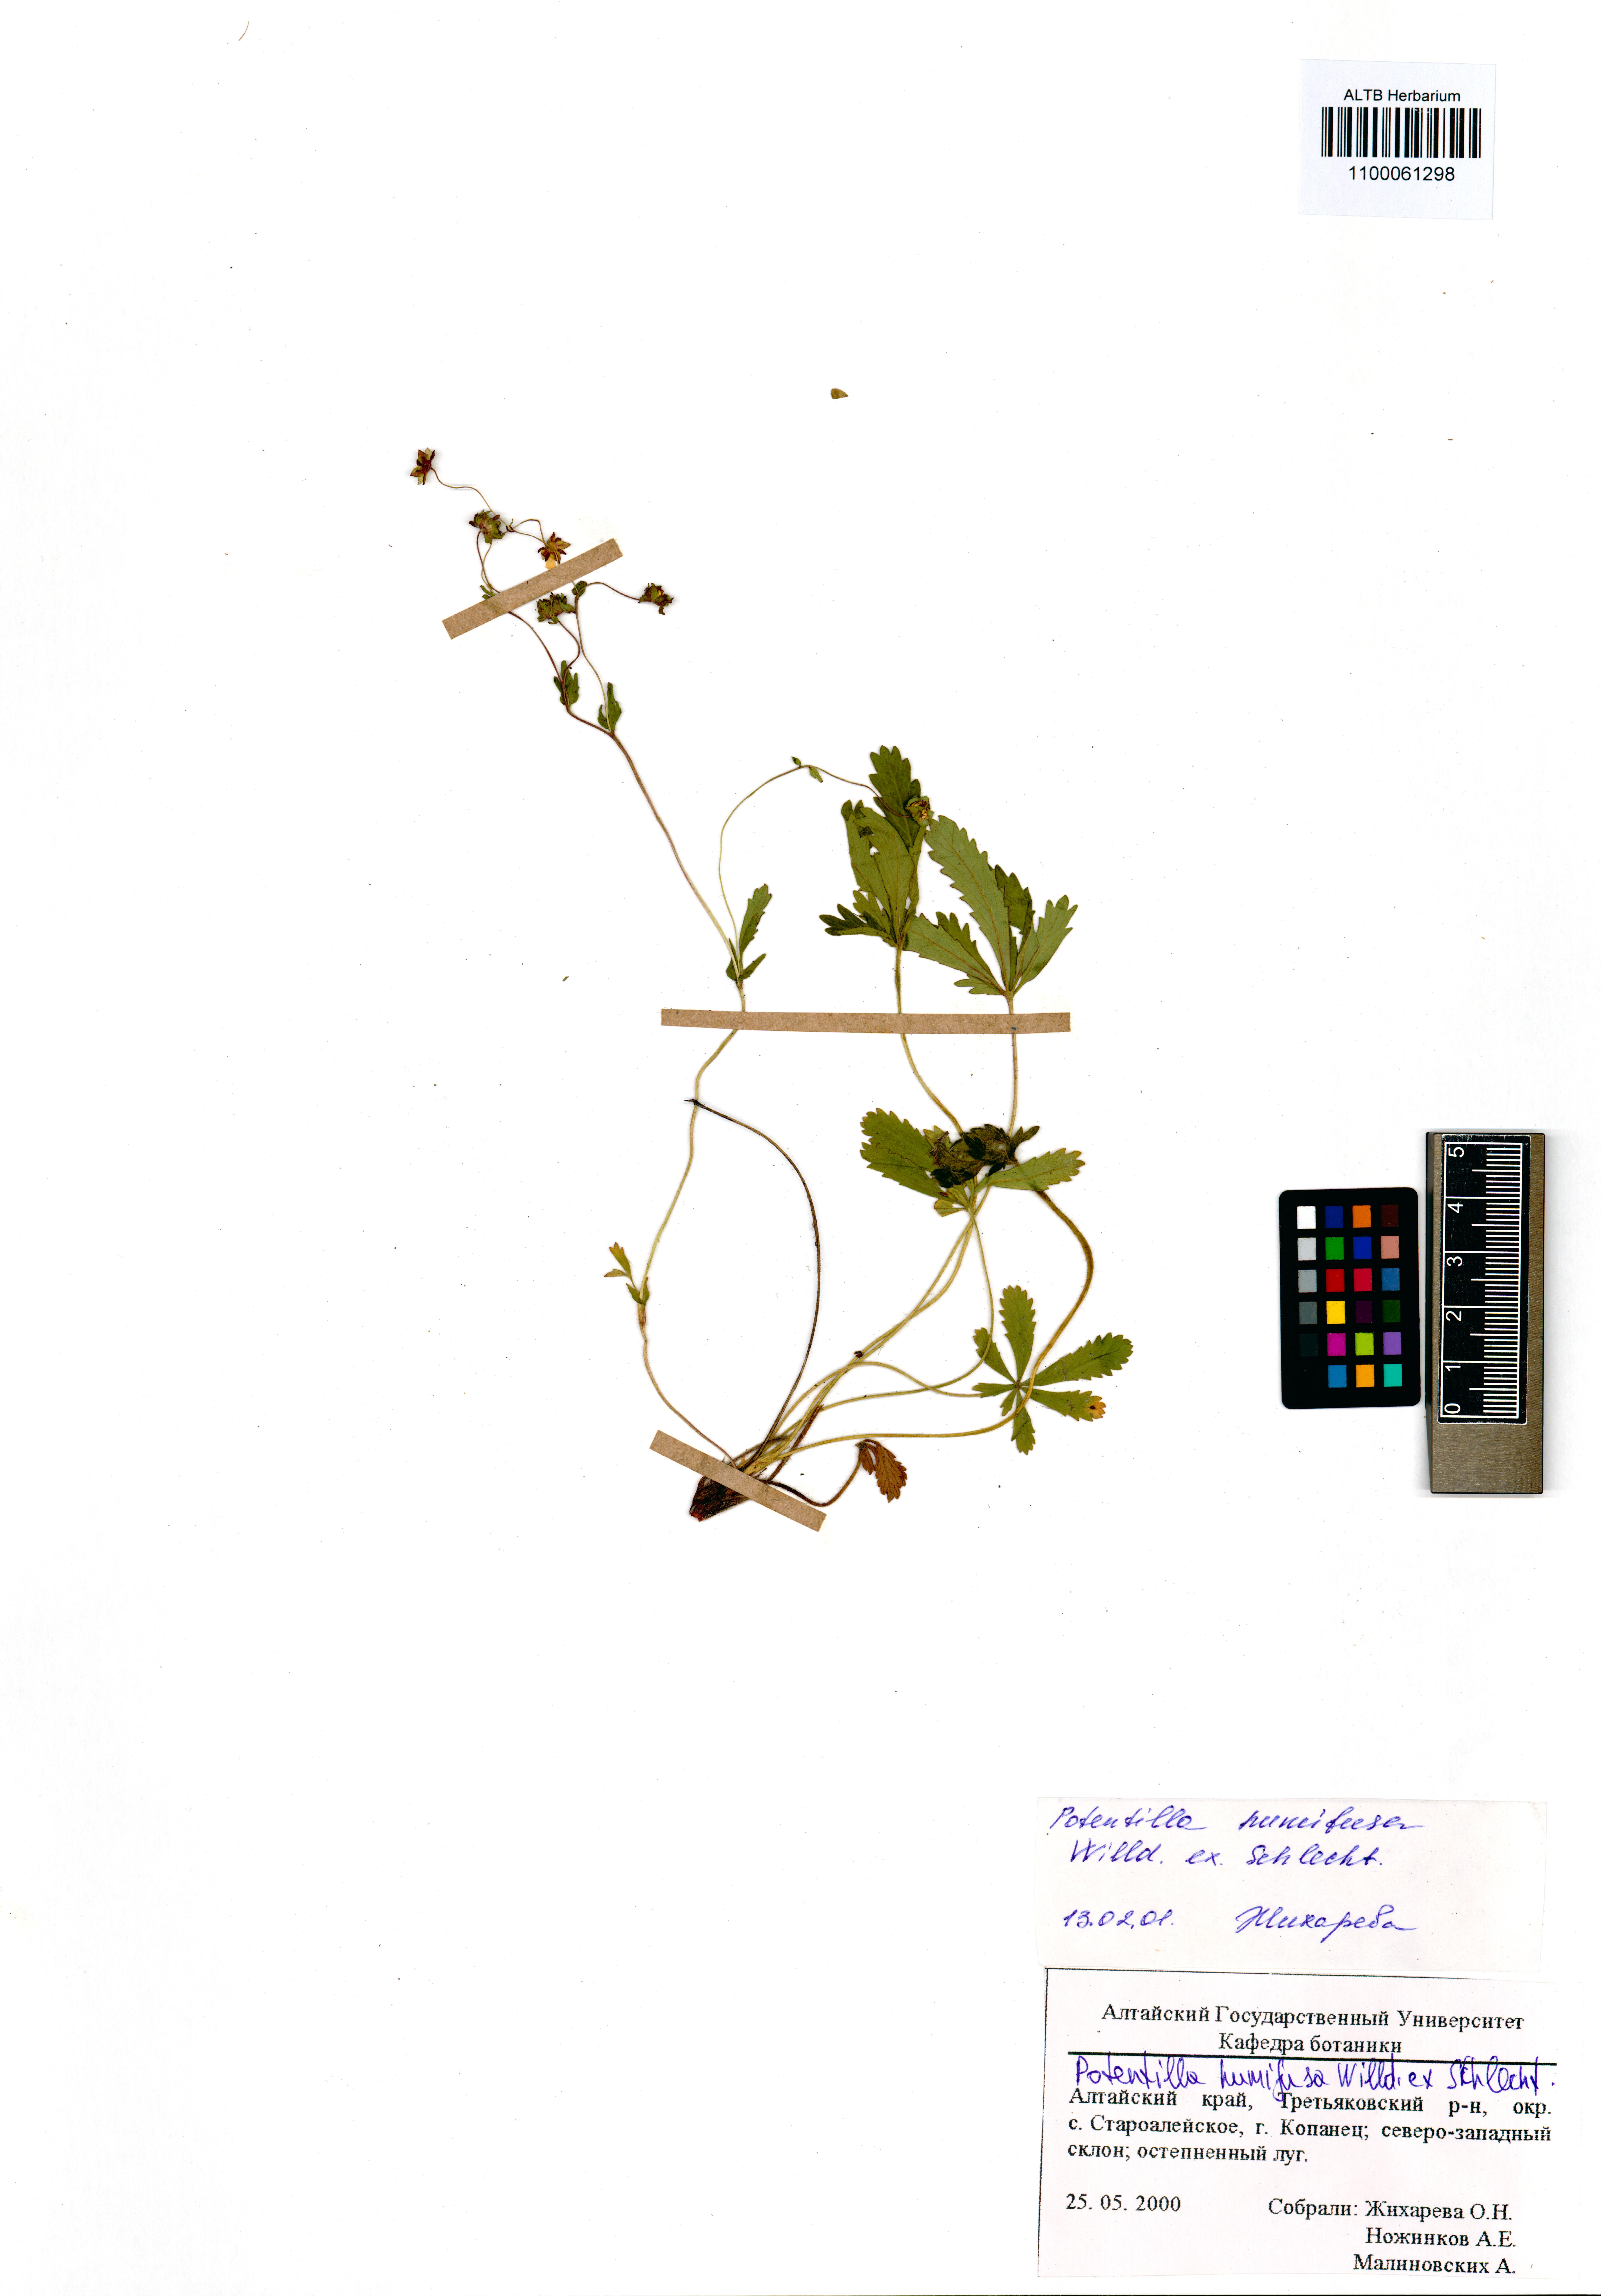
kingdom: Plantae
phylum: Tracheophyta
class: Magnoliopsida
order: Rosales
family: Rosaceae
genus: Potentilla
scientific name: Potentilla humifusa
